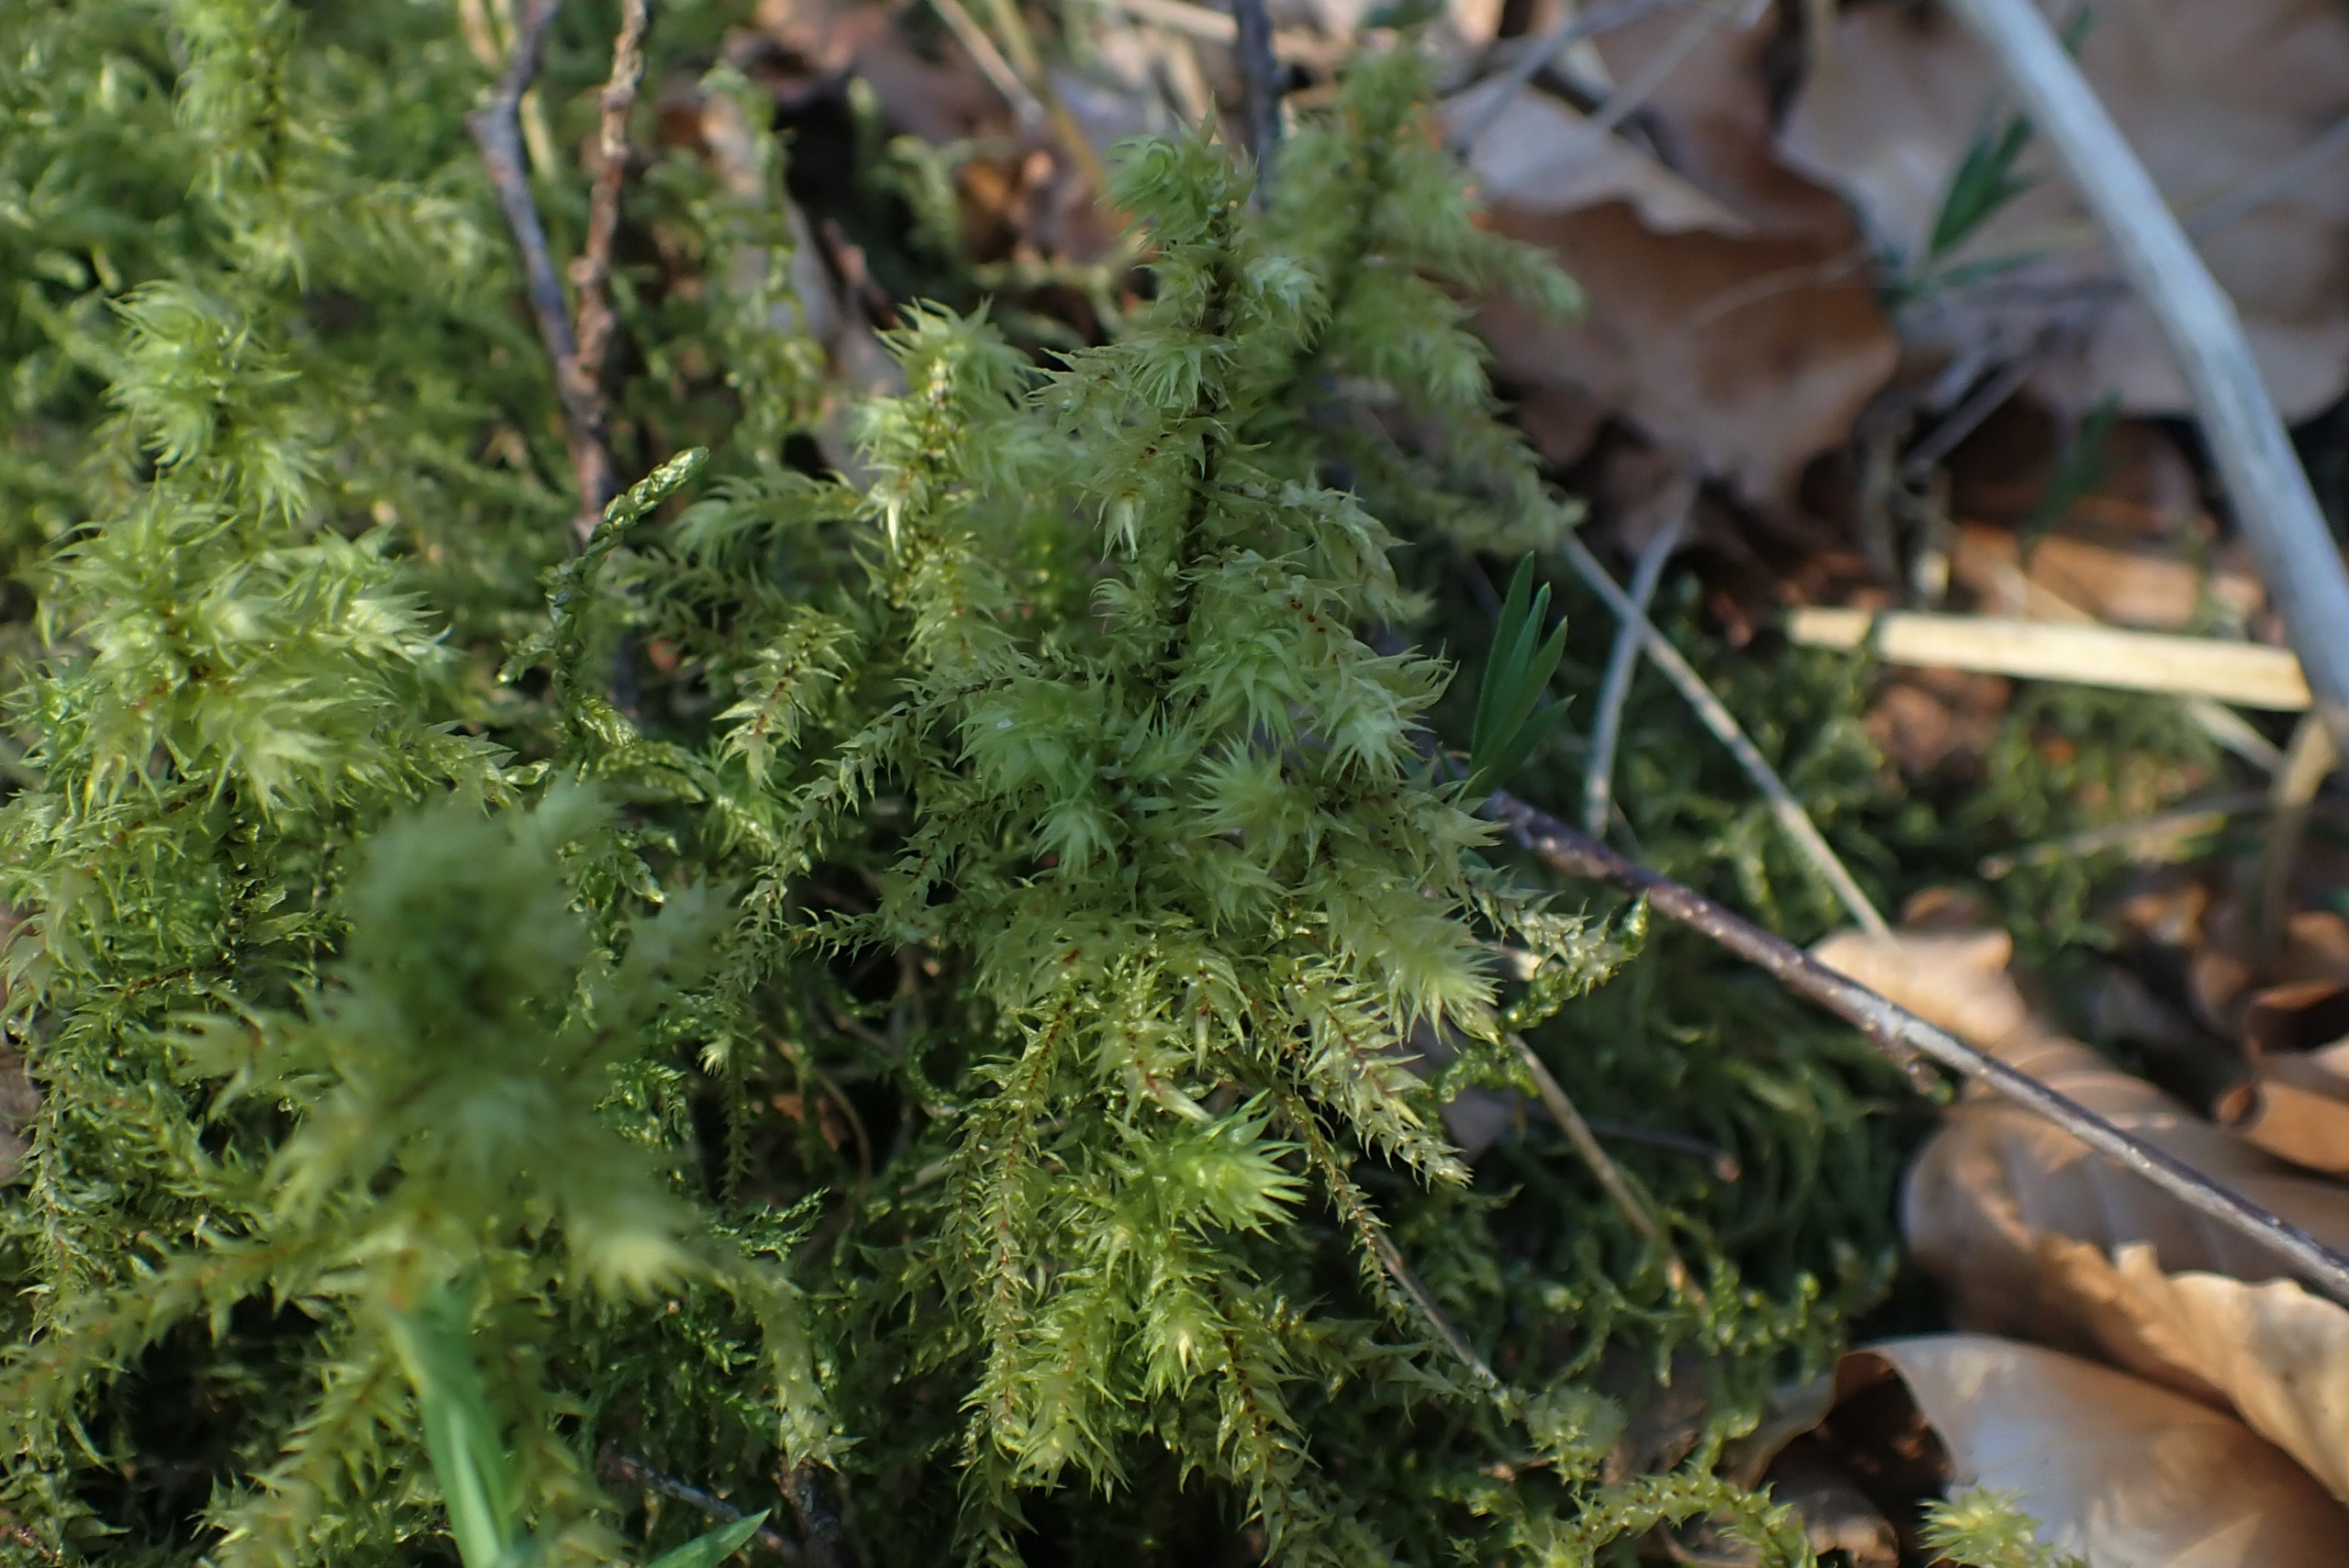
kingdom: Plantae
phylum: Bryophyta
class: Bryopsida
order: Hypnales
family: Hylocomiaceae
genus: Hylocomiadelphus
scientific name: Hylocomiadelphus triquetrus
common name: Stor kransemos
